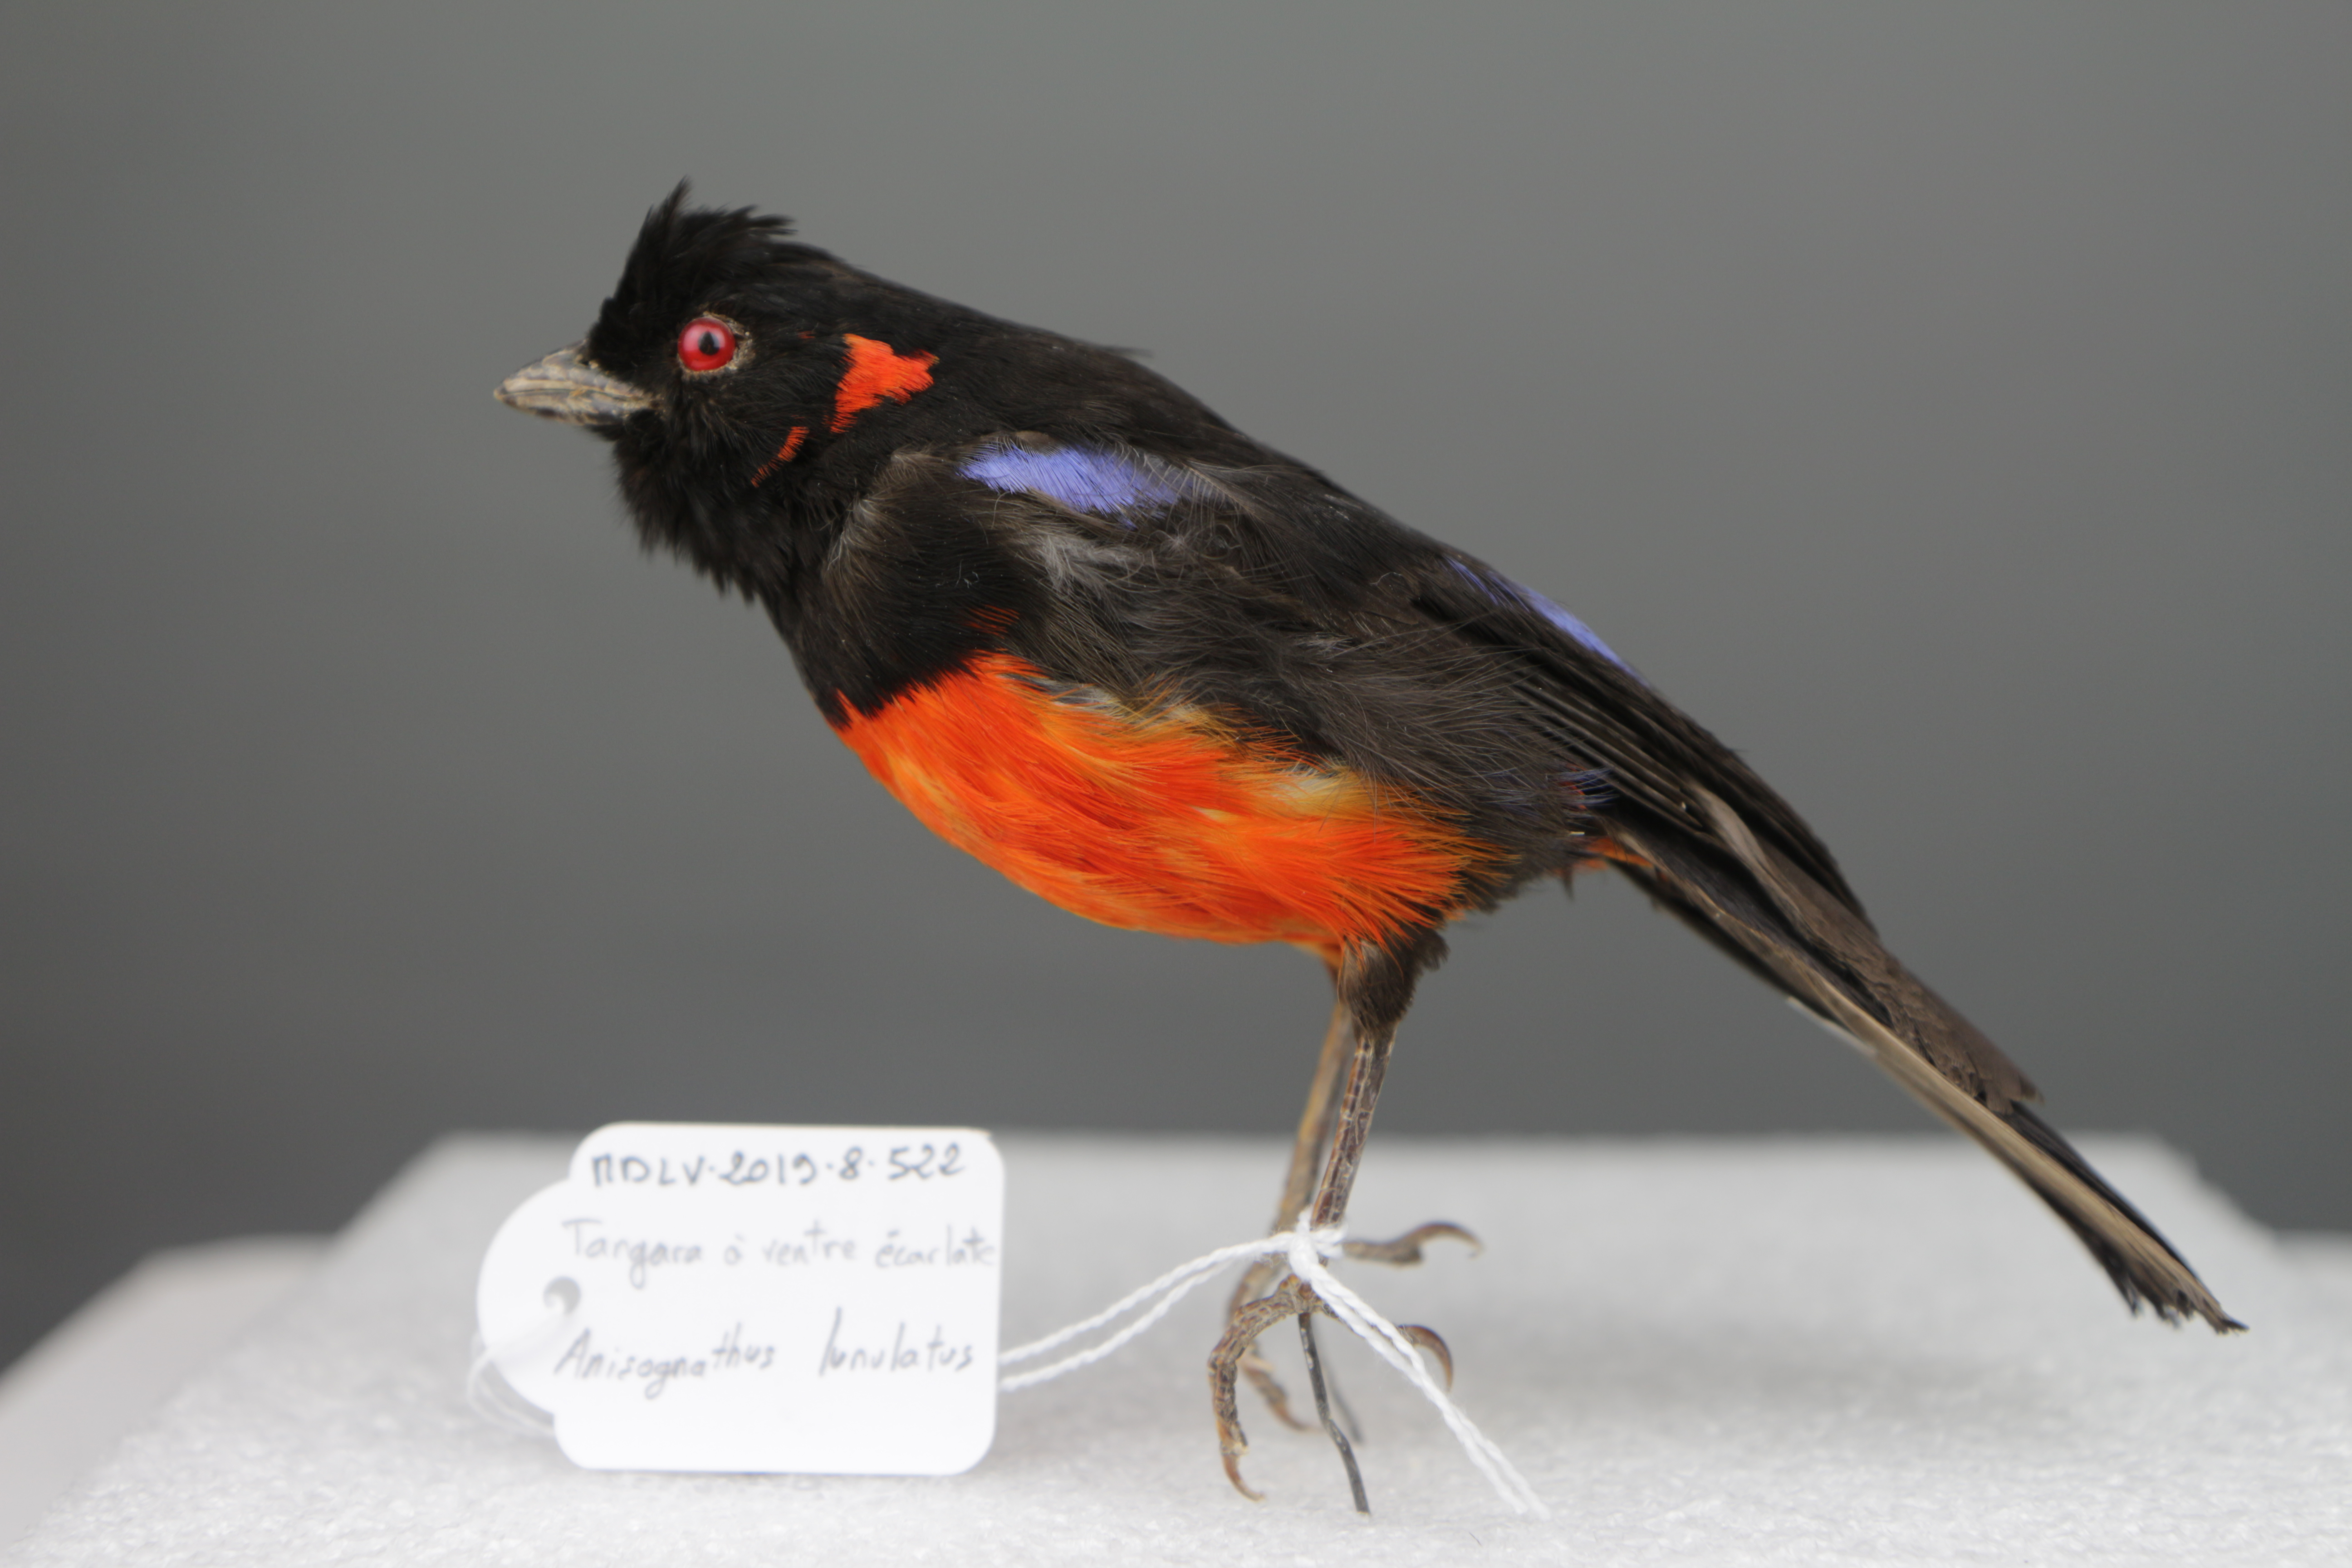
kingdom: Animalia
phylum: Chordata
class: Aves
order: Passeriformes
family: Thraupidae
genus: Anisognathus
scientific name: Anisognathus igniventris
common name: Scarlet-bellied mountain tanager
